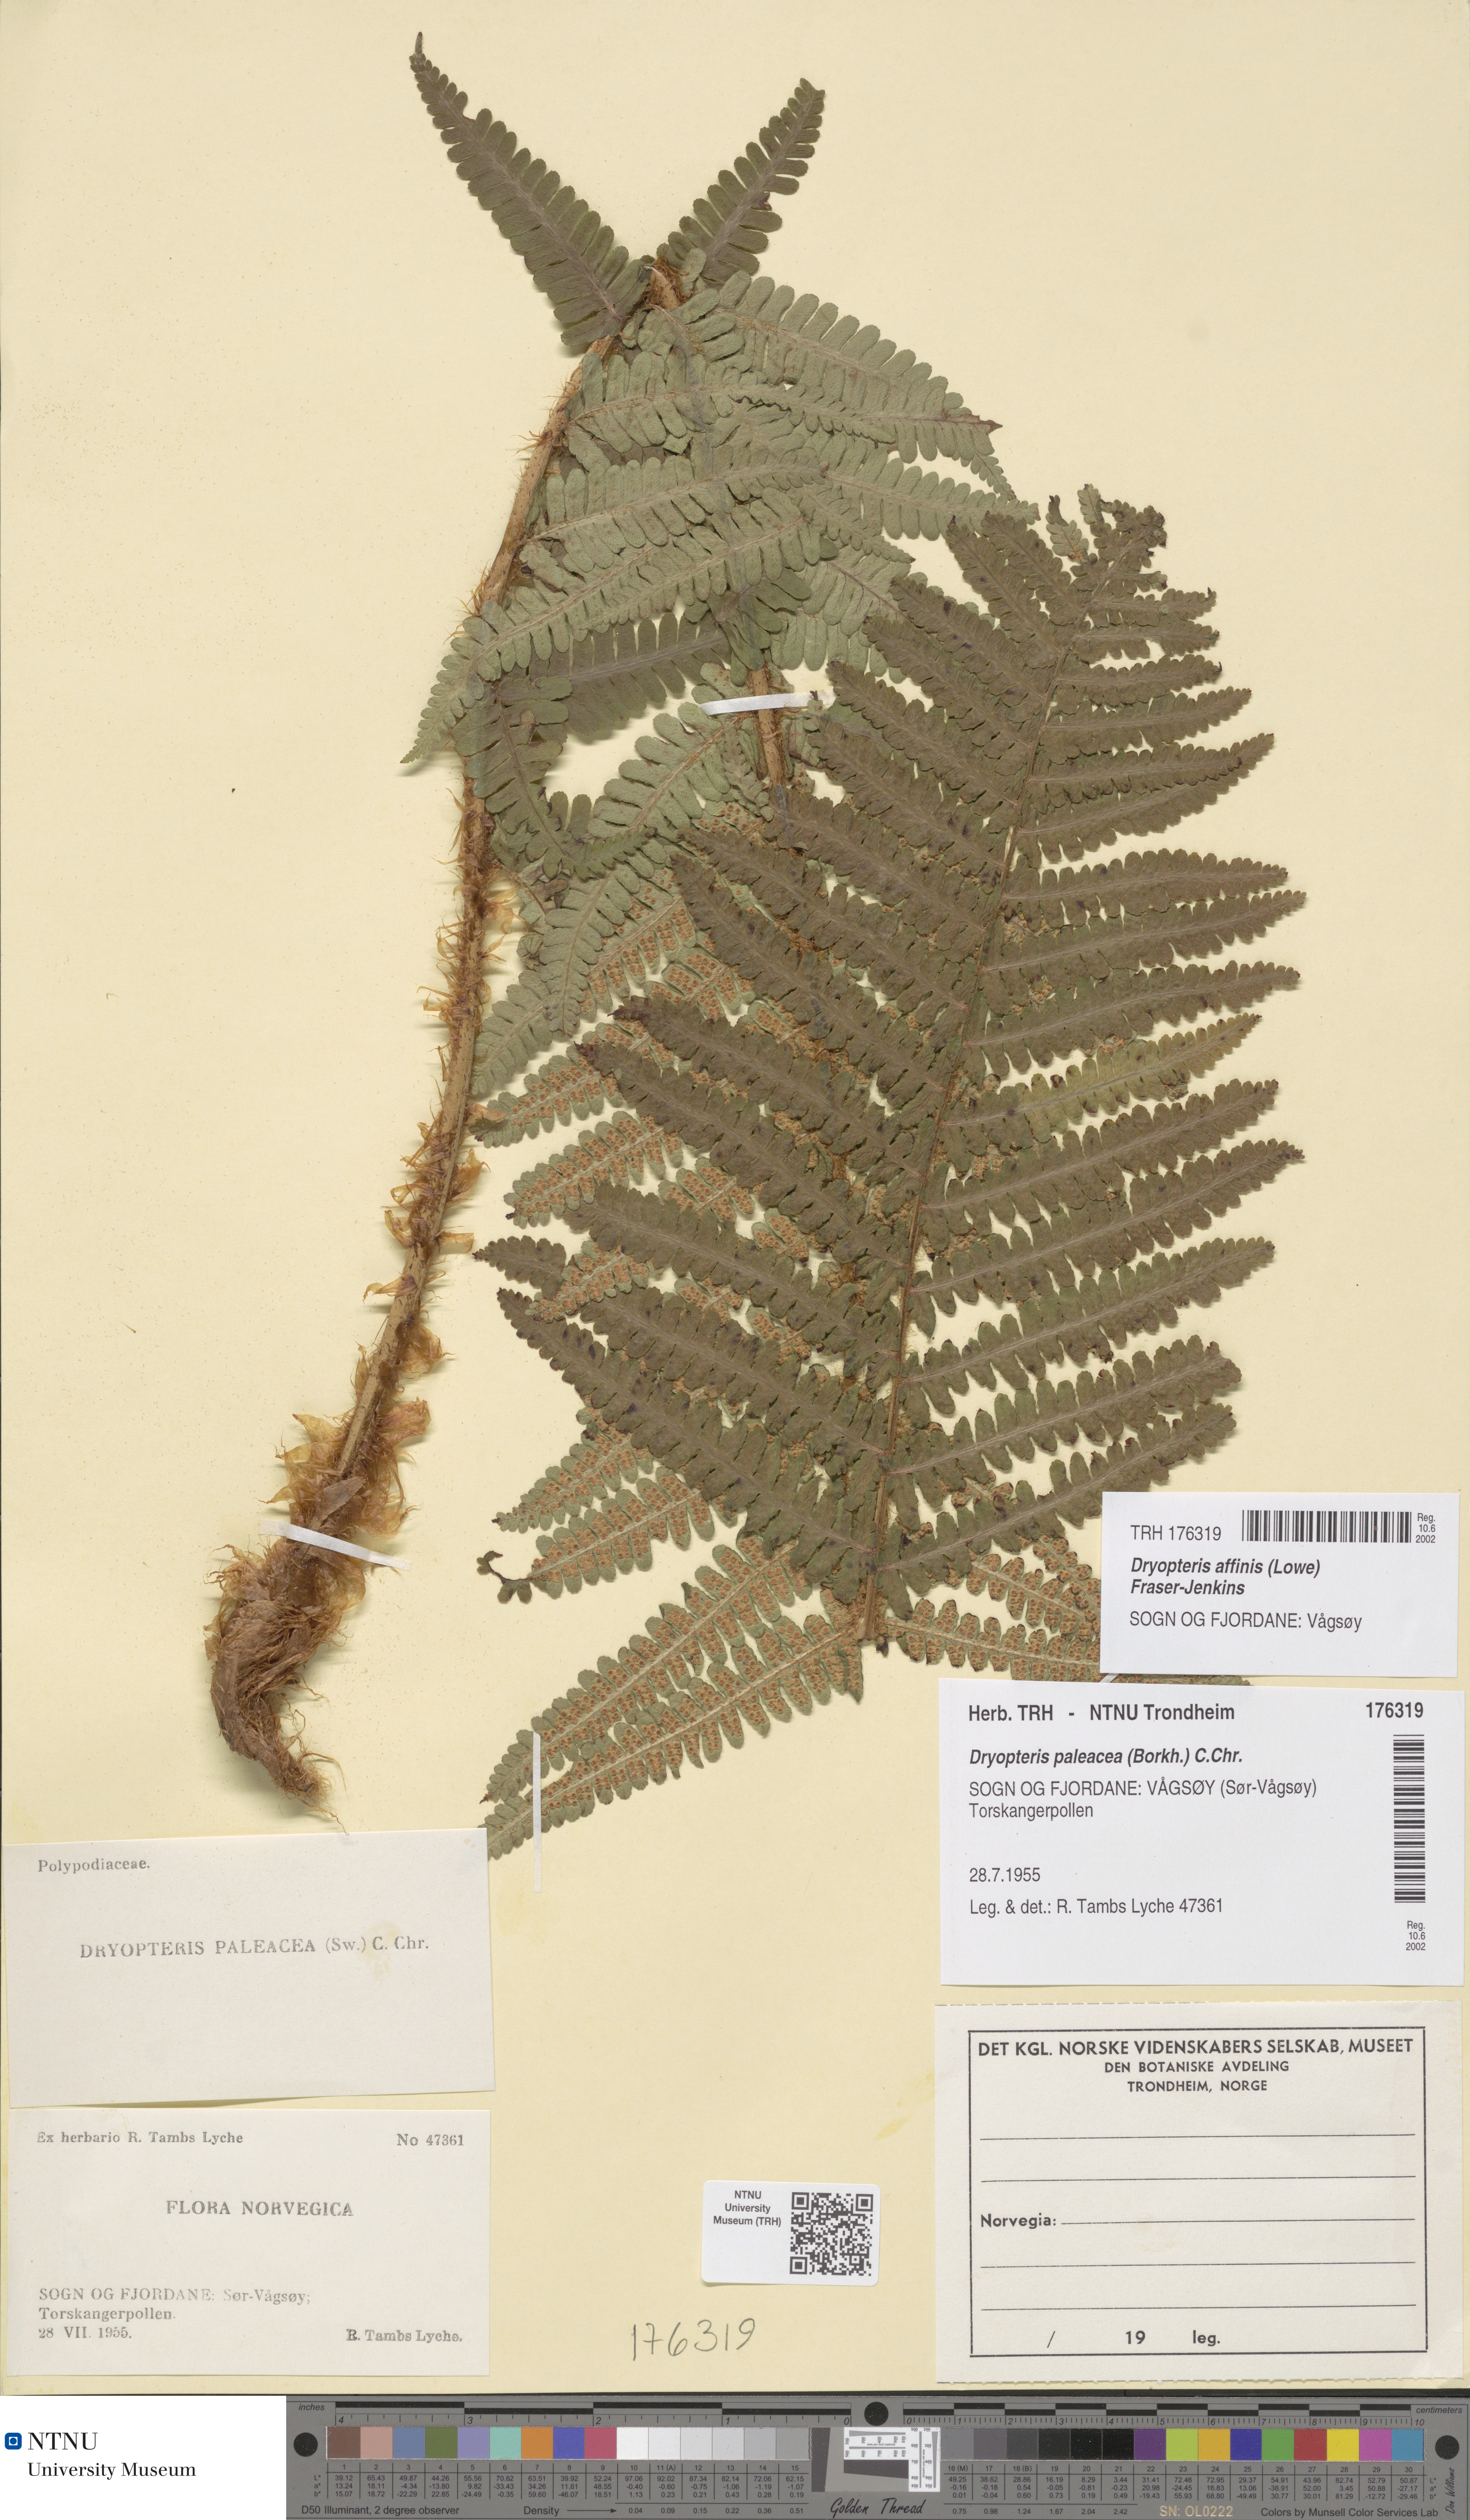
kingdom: Plantae
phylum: Tracheophyta
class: Polypodiopsida
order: Polypodiales
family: Dryopteridaceae
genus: Dryopteris
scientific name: Dryopteris affinis
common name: Scaly male fern
